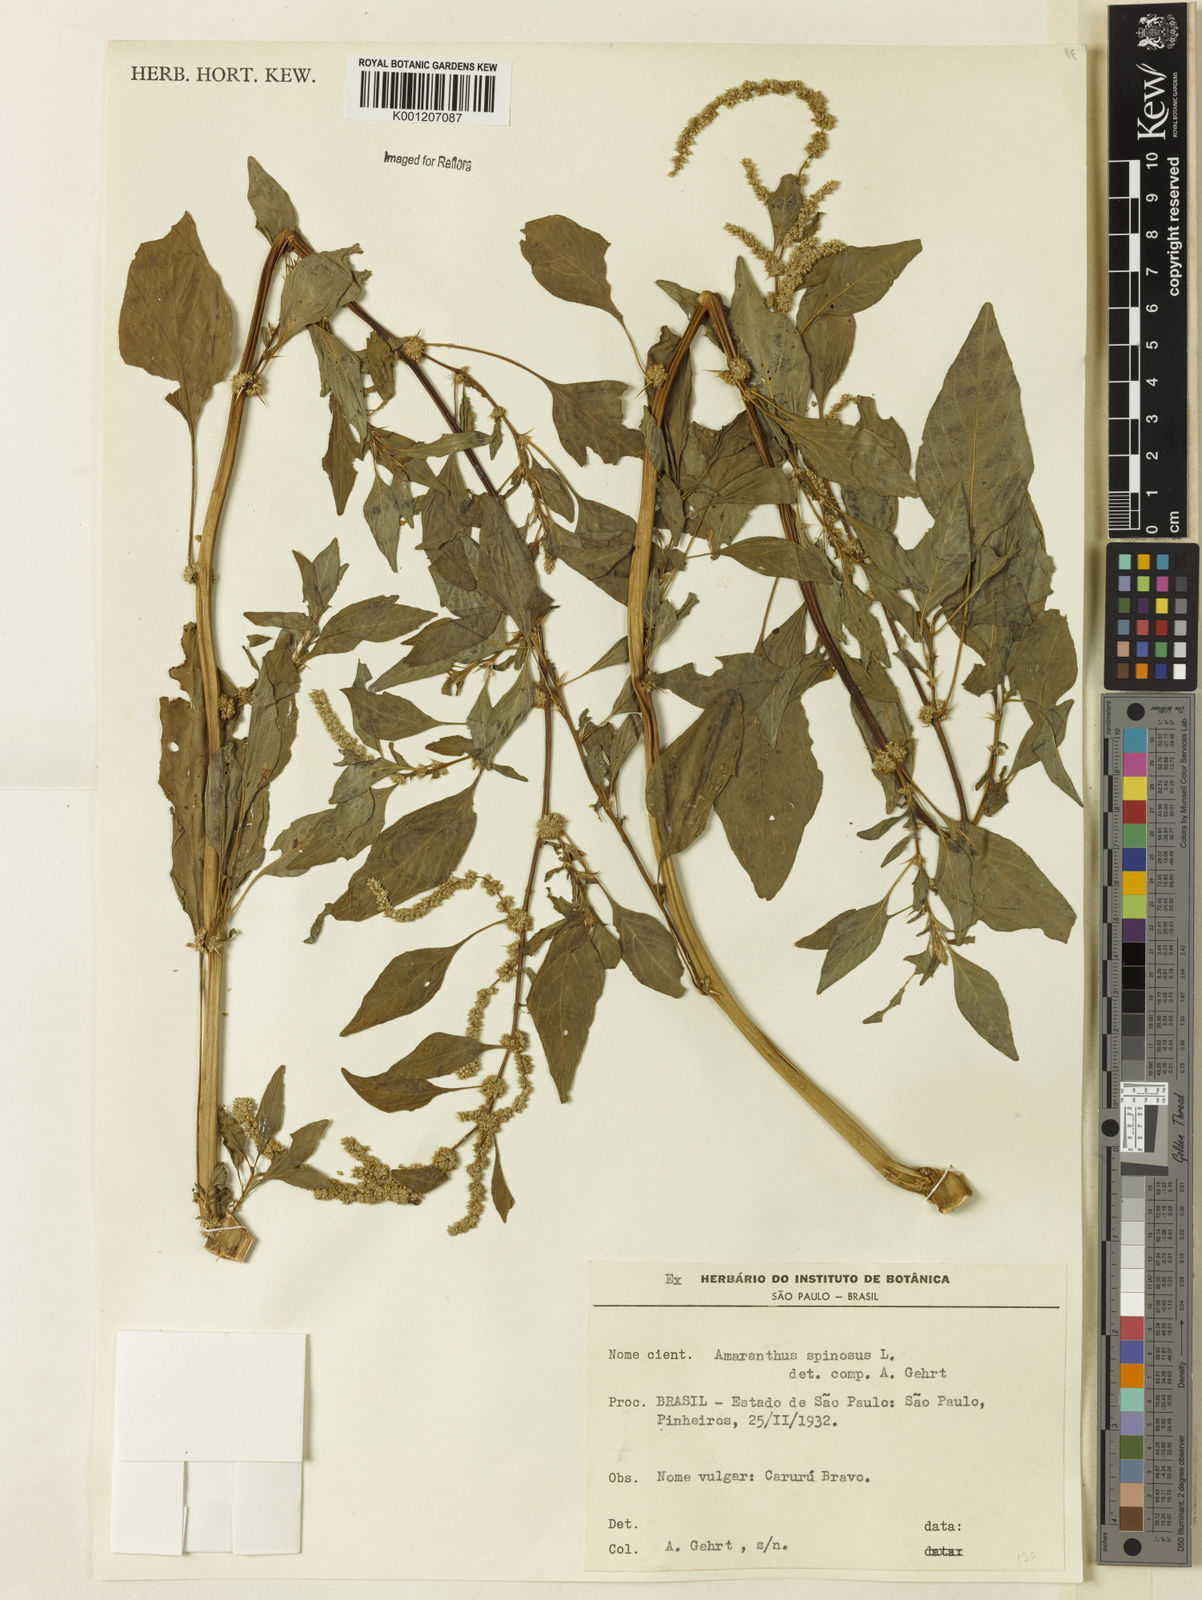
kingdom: Plantae
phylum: Tracheophyta
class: Magnoliopsida
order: Caryophyllales
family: Amaranthaceae
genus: Amaranthus
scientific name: Amaranthus spinosus
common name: Spiny amaranth
